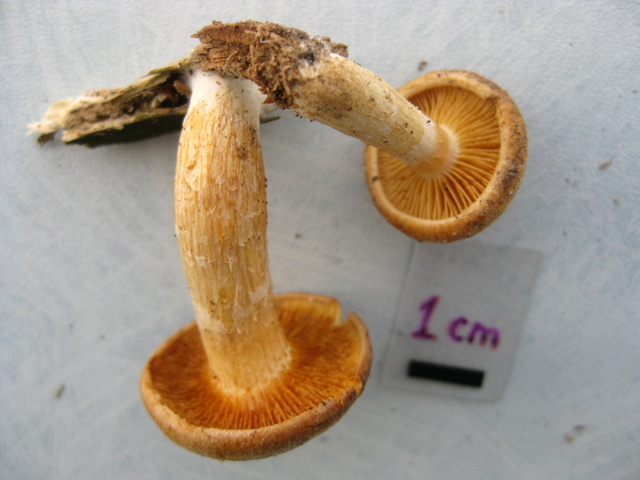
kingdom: Fungi
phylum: Basidiomycota
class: Agaricomycetes
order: Agaricales
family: Hymenogastraceae
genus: Gymnopilus
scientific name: Gymnopilus spectabilis
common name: fibret flammehat
